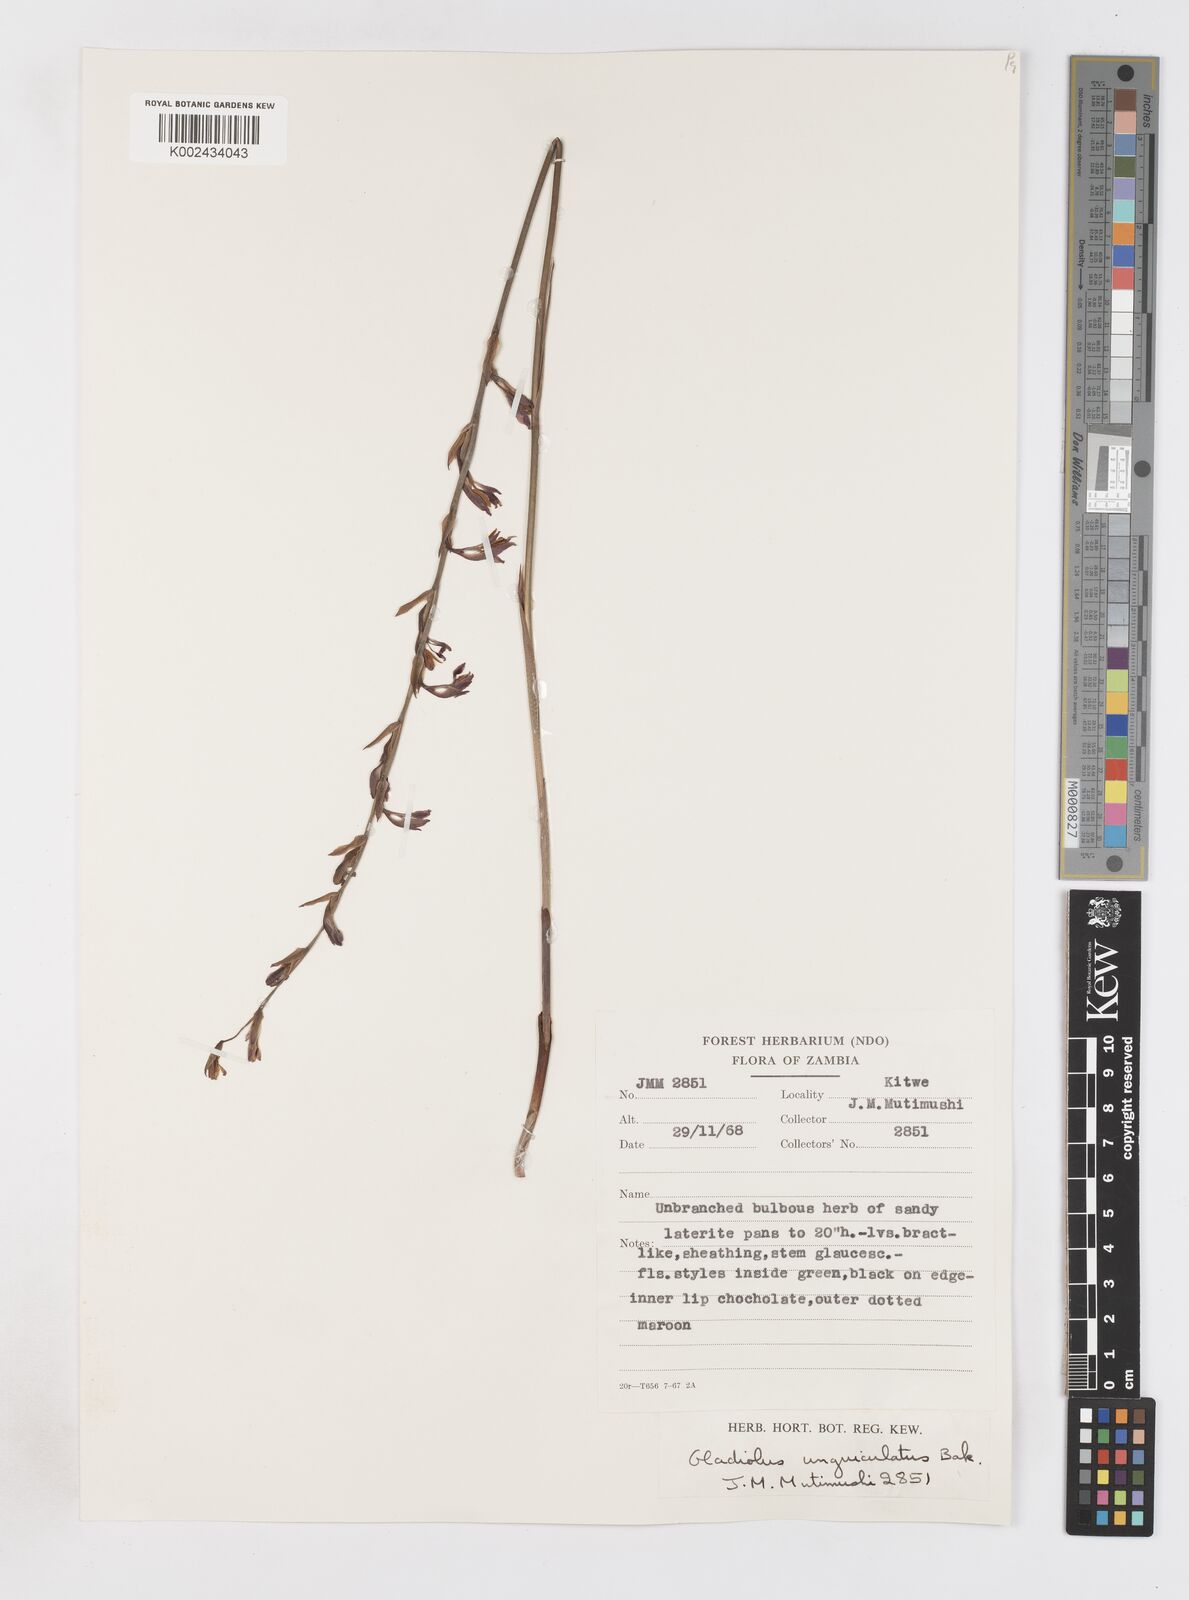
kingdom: Plantae
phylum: Tracheophyta
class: Liliopsida
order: Asparagales
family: Iridaceae
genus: Gladiolus
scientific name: Gladiolus atropurpureus
